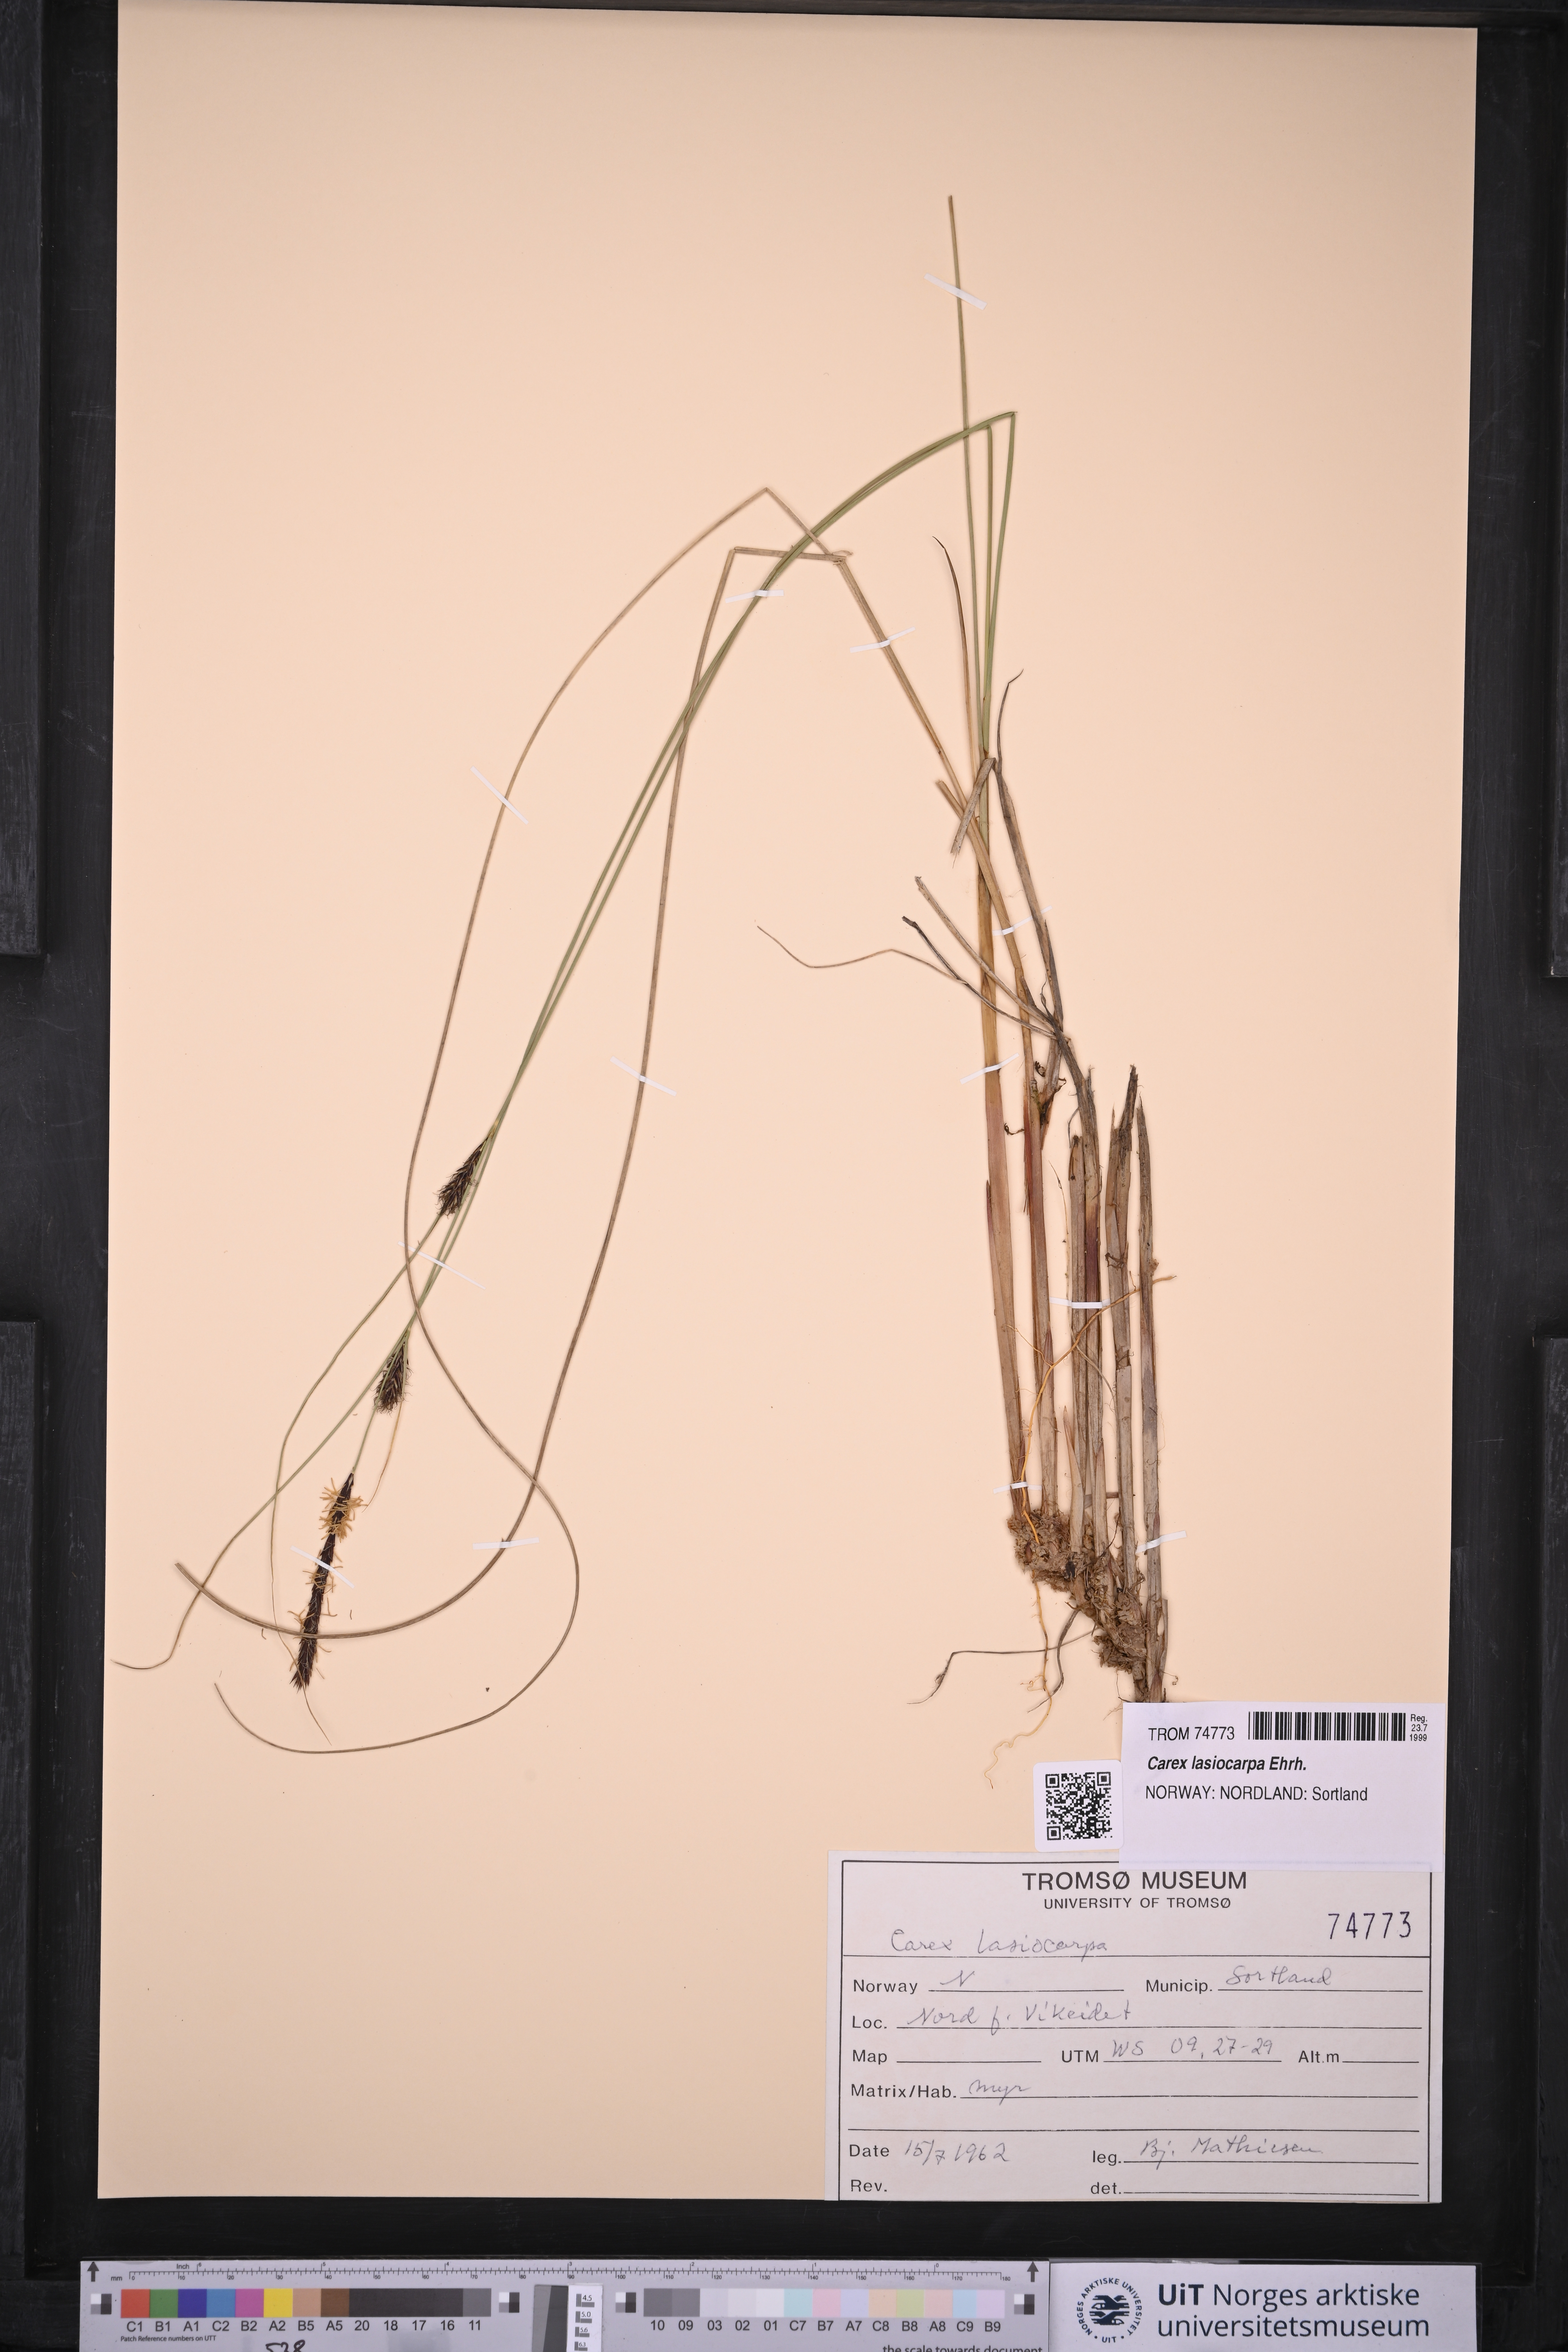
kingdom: Plantae
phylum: Tracheophyta
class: Liliopsida
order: Poales
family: Cyperaceae
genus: Carex
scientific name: Carex lasiocarpa
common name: Slender sedge
